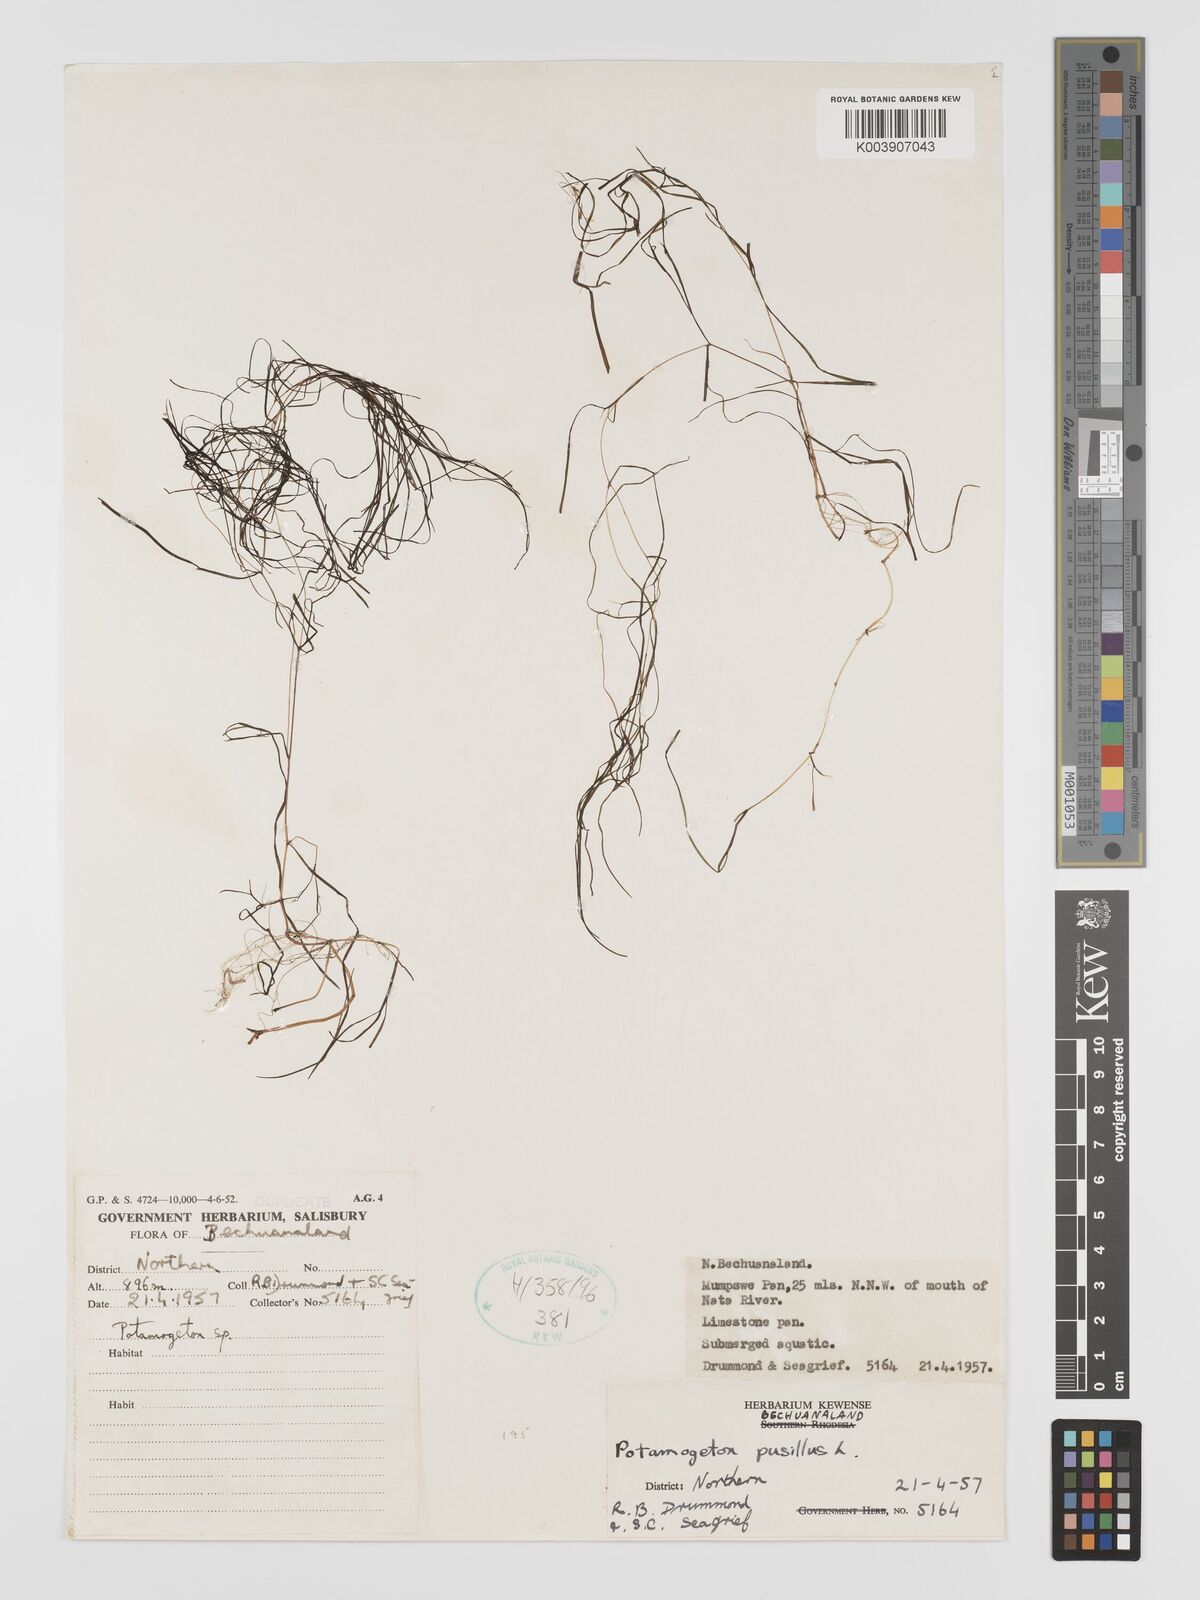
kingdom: Plantae
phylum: Tracheophyta
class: Liliopsida
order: Alismatales
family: Potamogetonaceae
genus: Potamogeton
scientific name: Potamogeton pusillus
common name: Lesser pondweed
